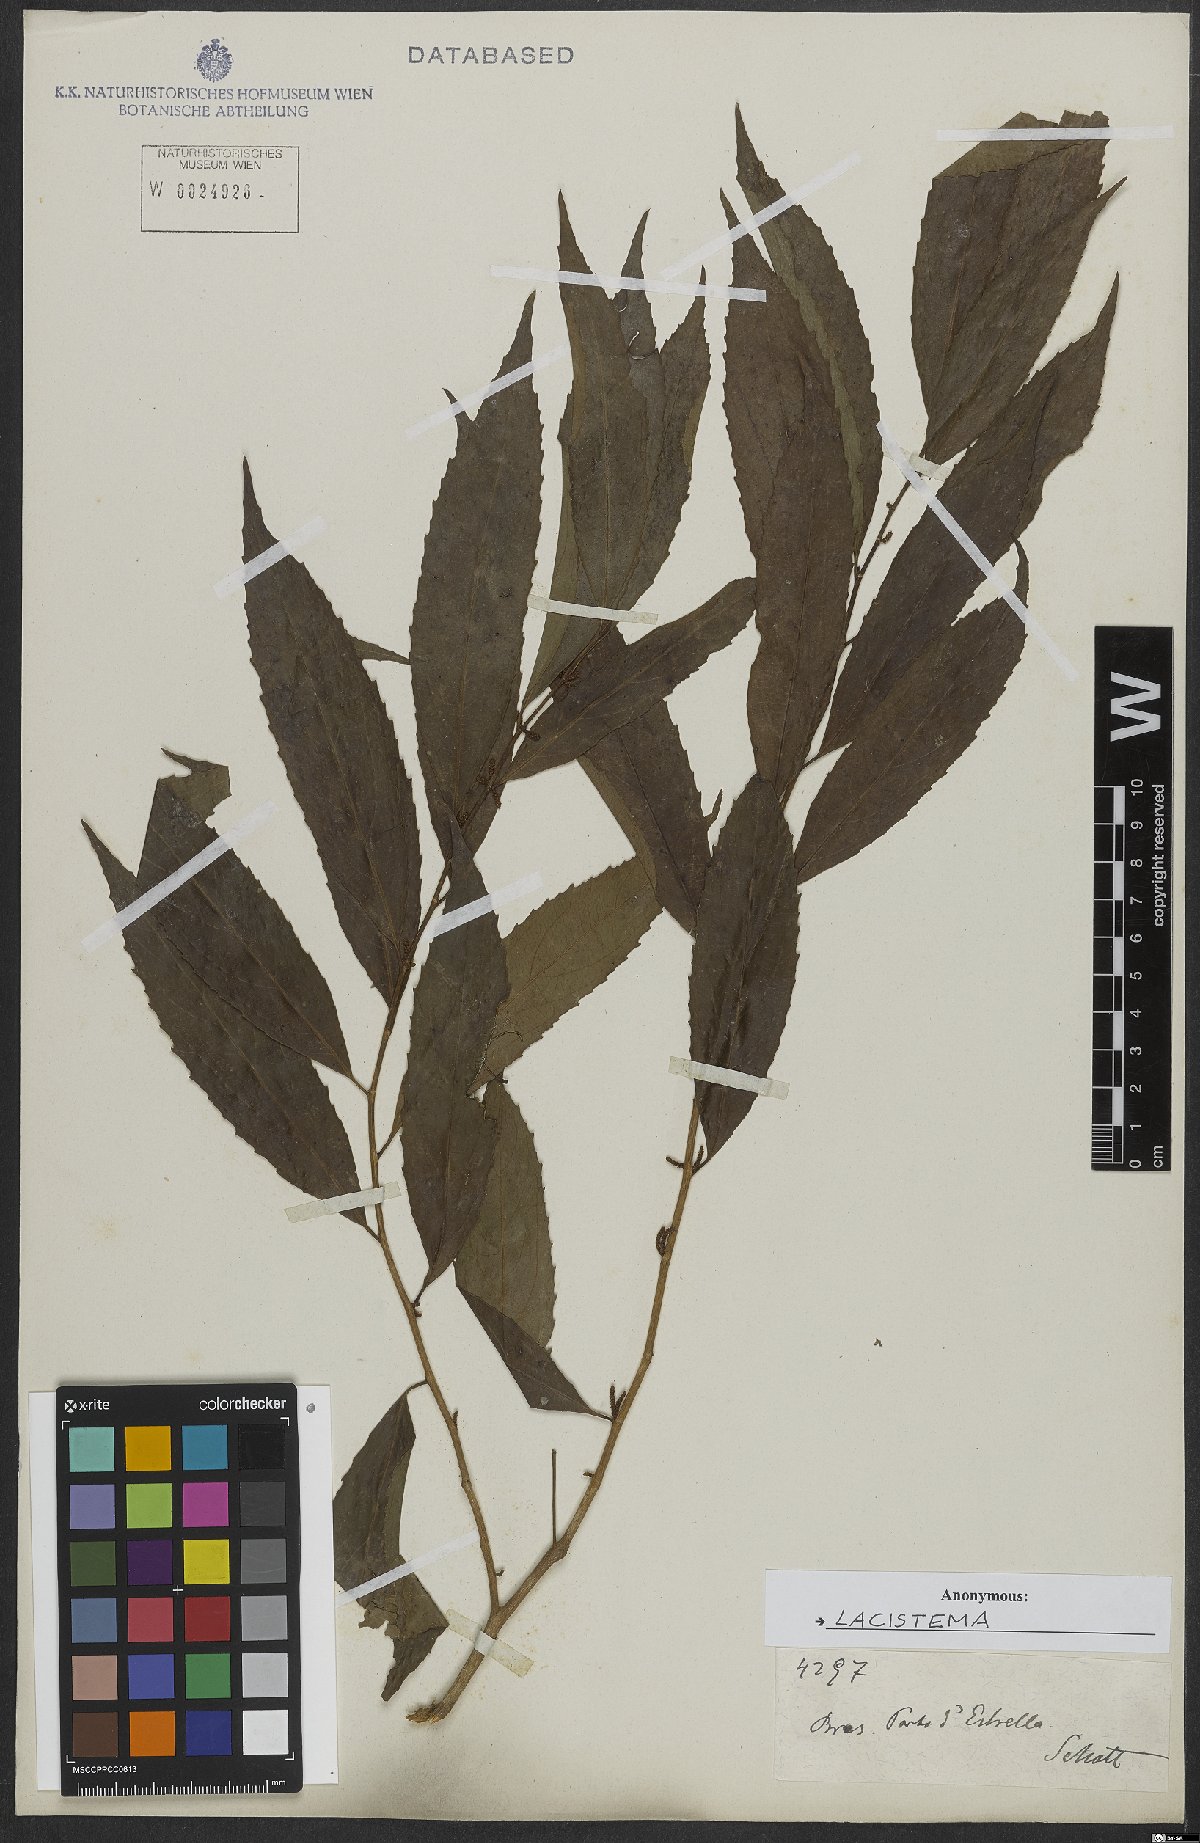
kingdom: Plantae
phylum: Tracheophyta
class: Magnoliopsida
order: Malpighiales
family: Lacistemataceae
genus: Lacistema
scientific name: Lacistema
